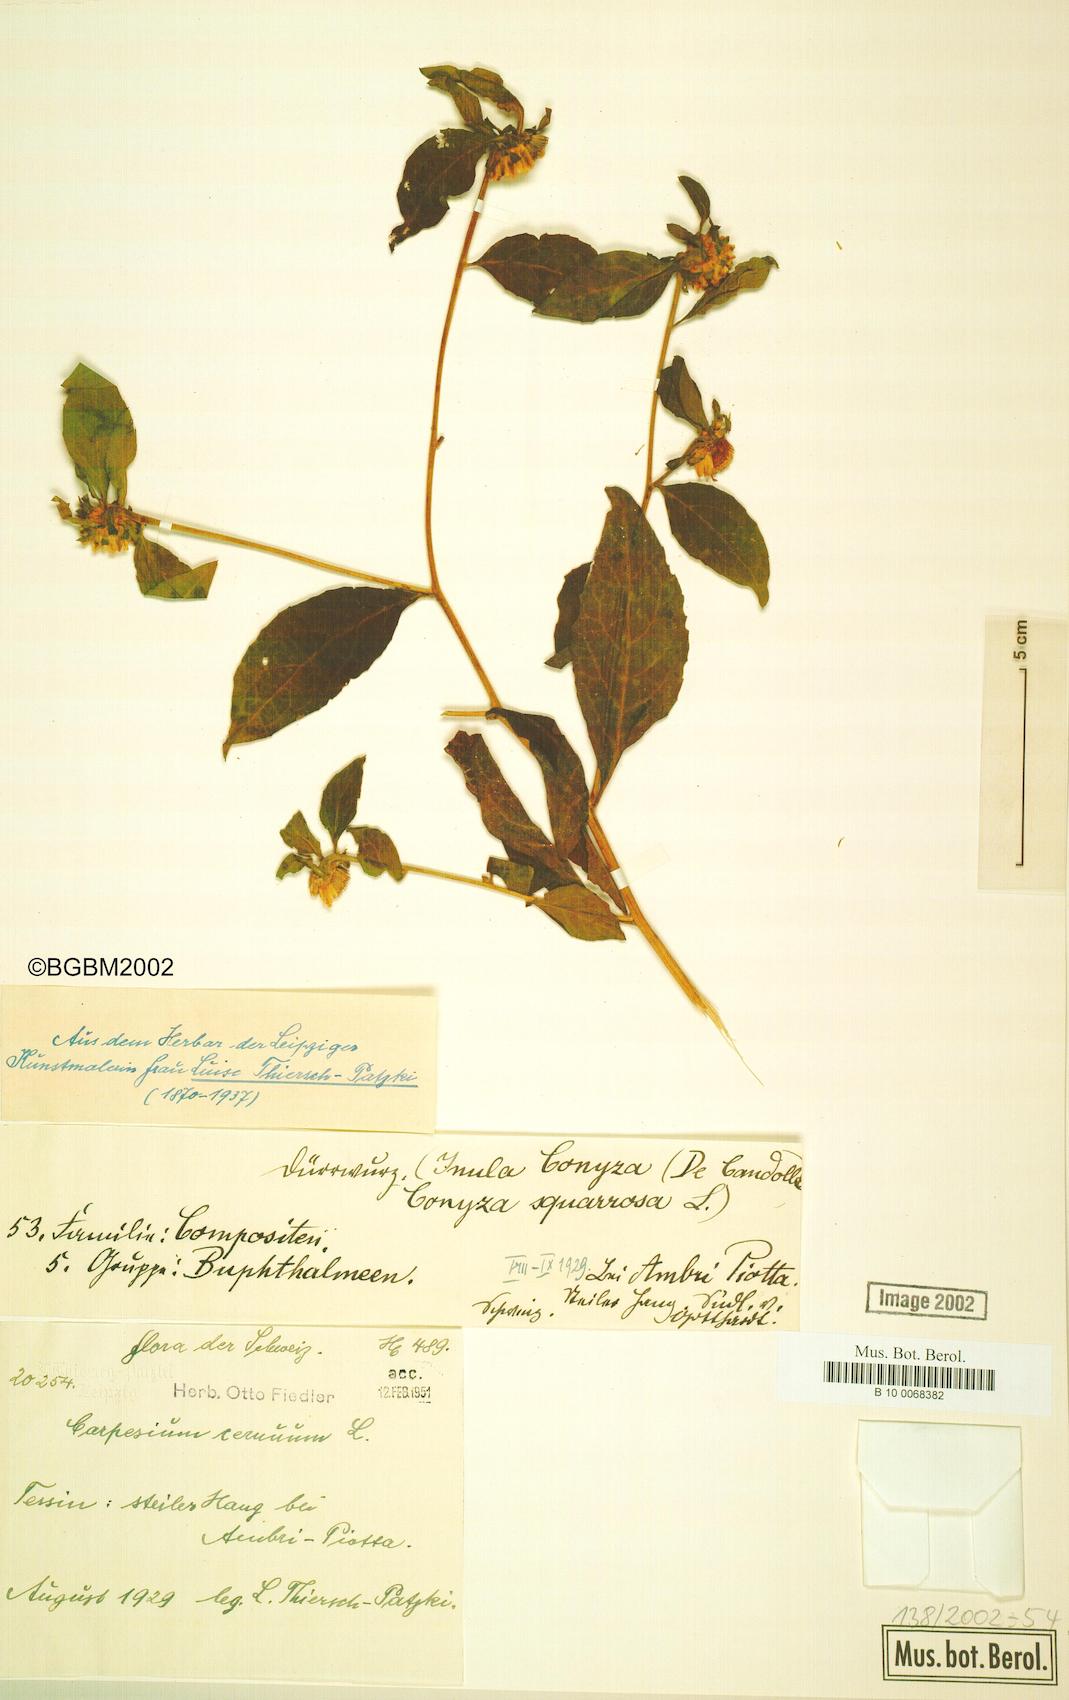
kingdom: Plantae
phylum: Tracheophyta
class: Magnoliopsida
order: Asterales
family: Asteraceae
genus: Carpesium
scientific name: Carpesium cernuum
